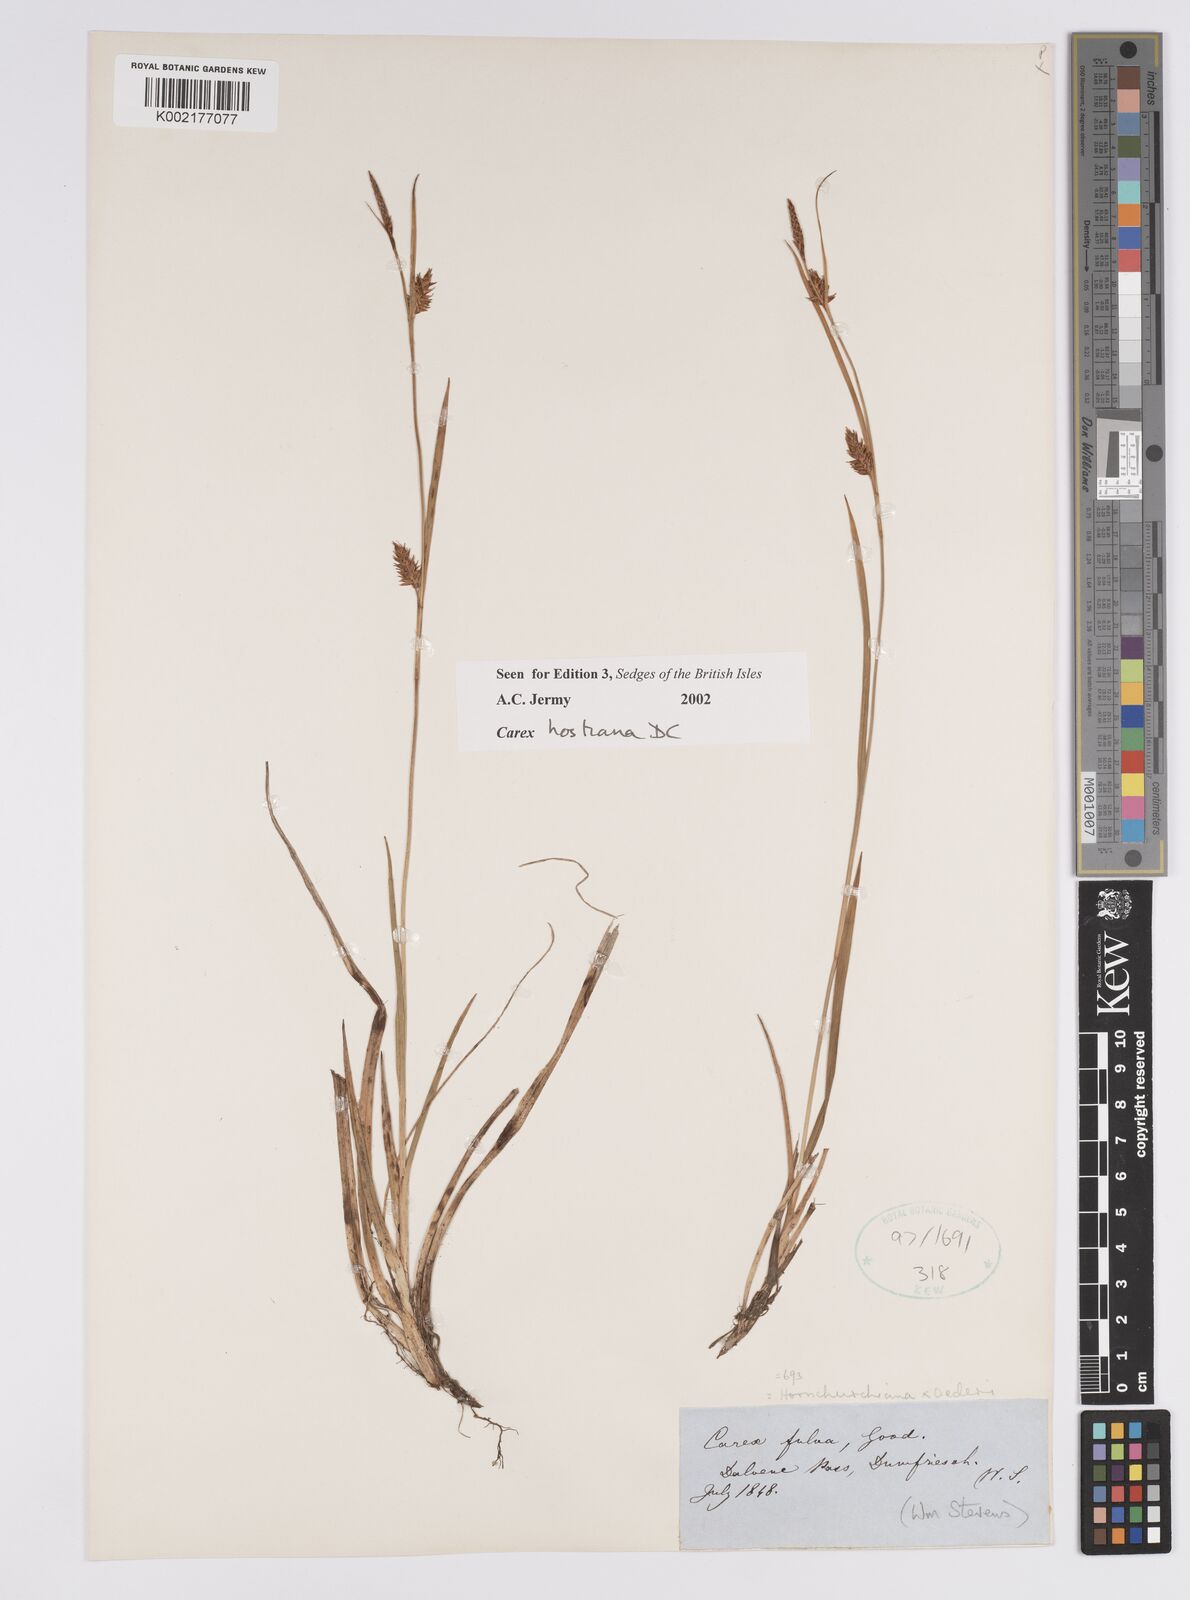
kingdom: Plantae
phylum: Tracheophyta
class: Liliopsida
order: Poales
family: Cyperaceae
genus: Carex
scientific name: Carex hostiana
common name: Tawny sedge
